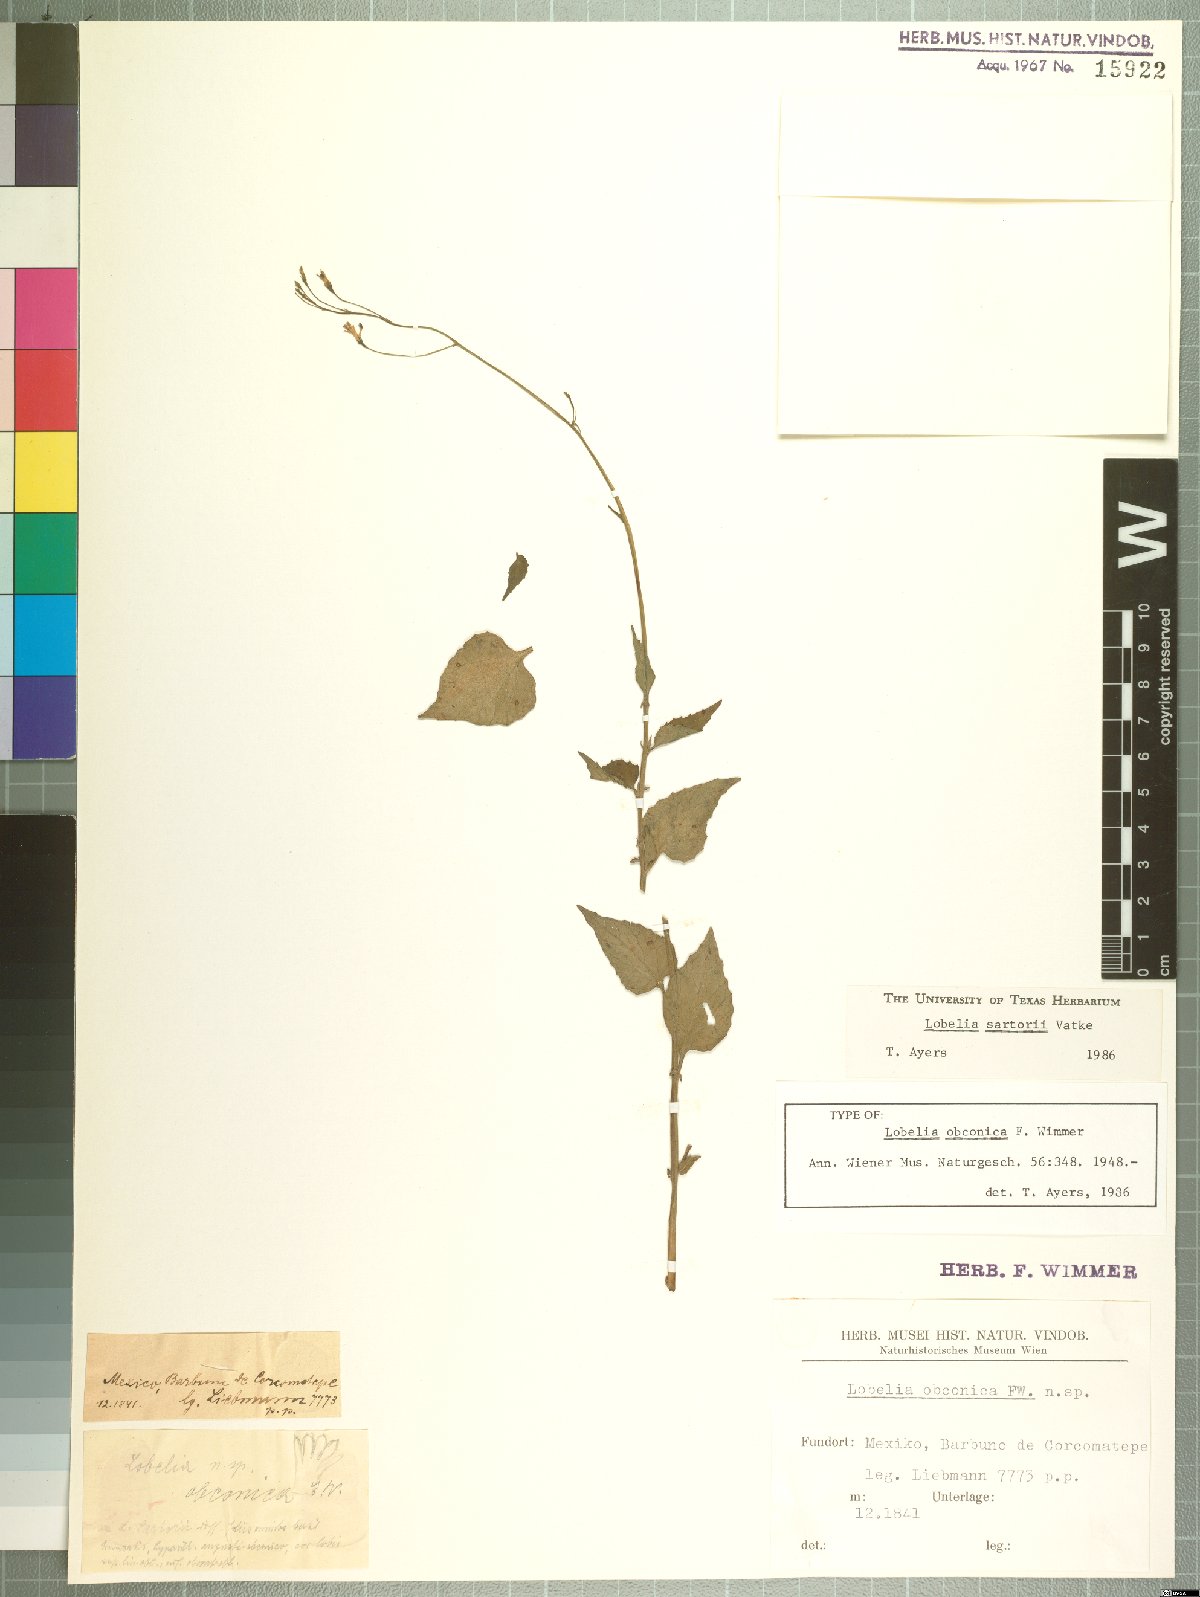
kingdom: Plantae
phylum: Tracheophyta
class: Magnoliopsida
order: Asterales
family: Campanulaceae
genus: Lobelia
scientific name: Lobelia obconica
